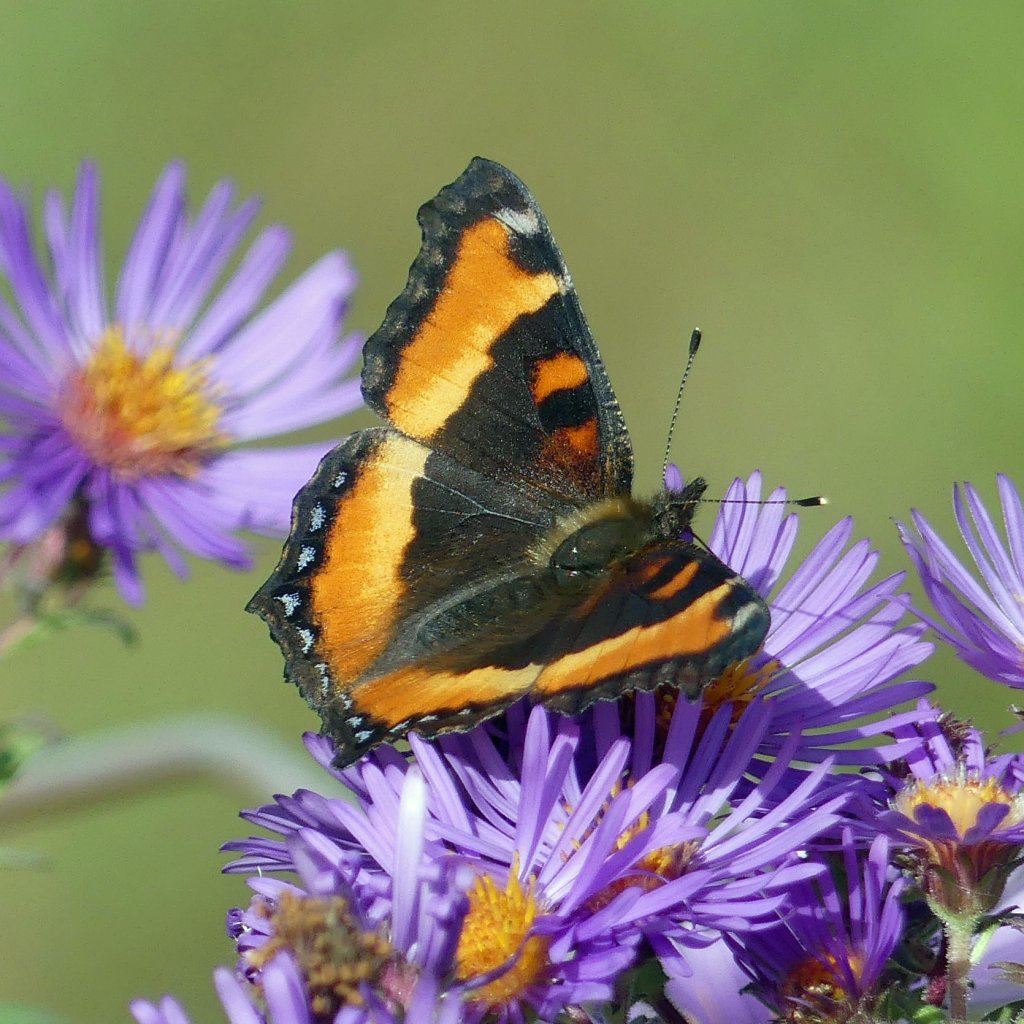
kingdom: Animalia
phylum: Arthropoda
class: Insecta
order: Lepidoptera
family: Nymphalidae
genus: Aglais
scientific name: Aglais milberti
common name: Milbert's Tortoiseshell
